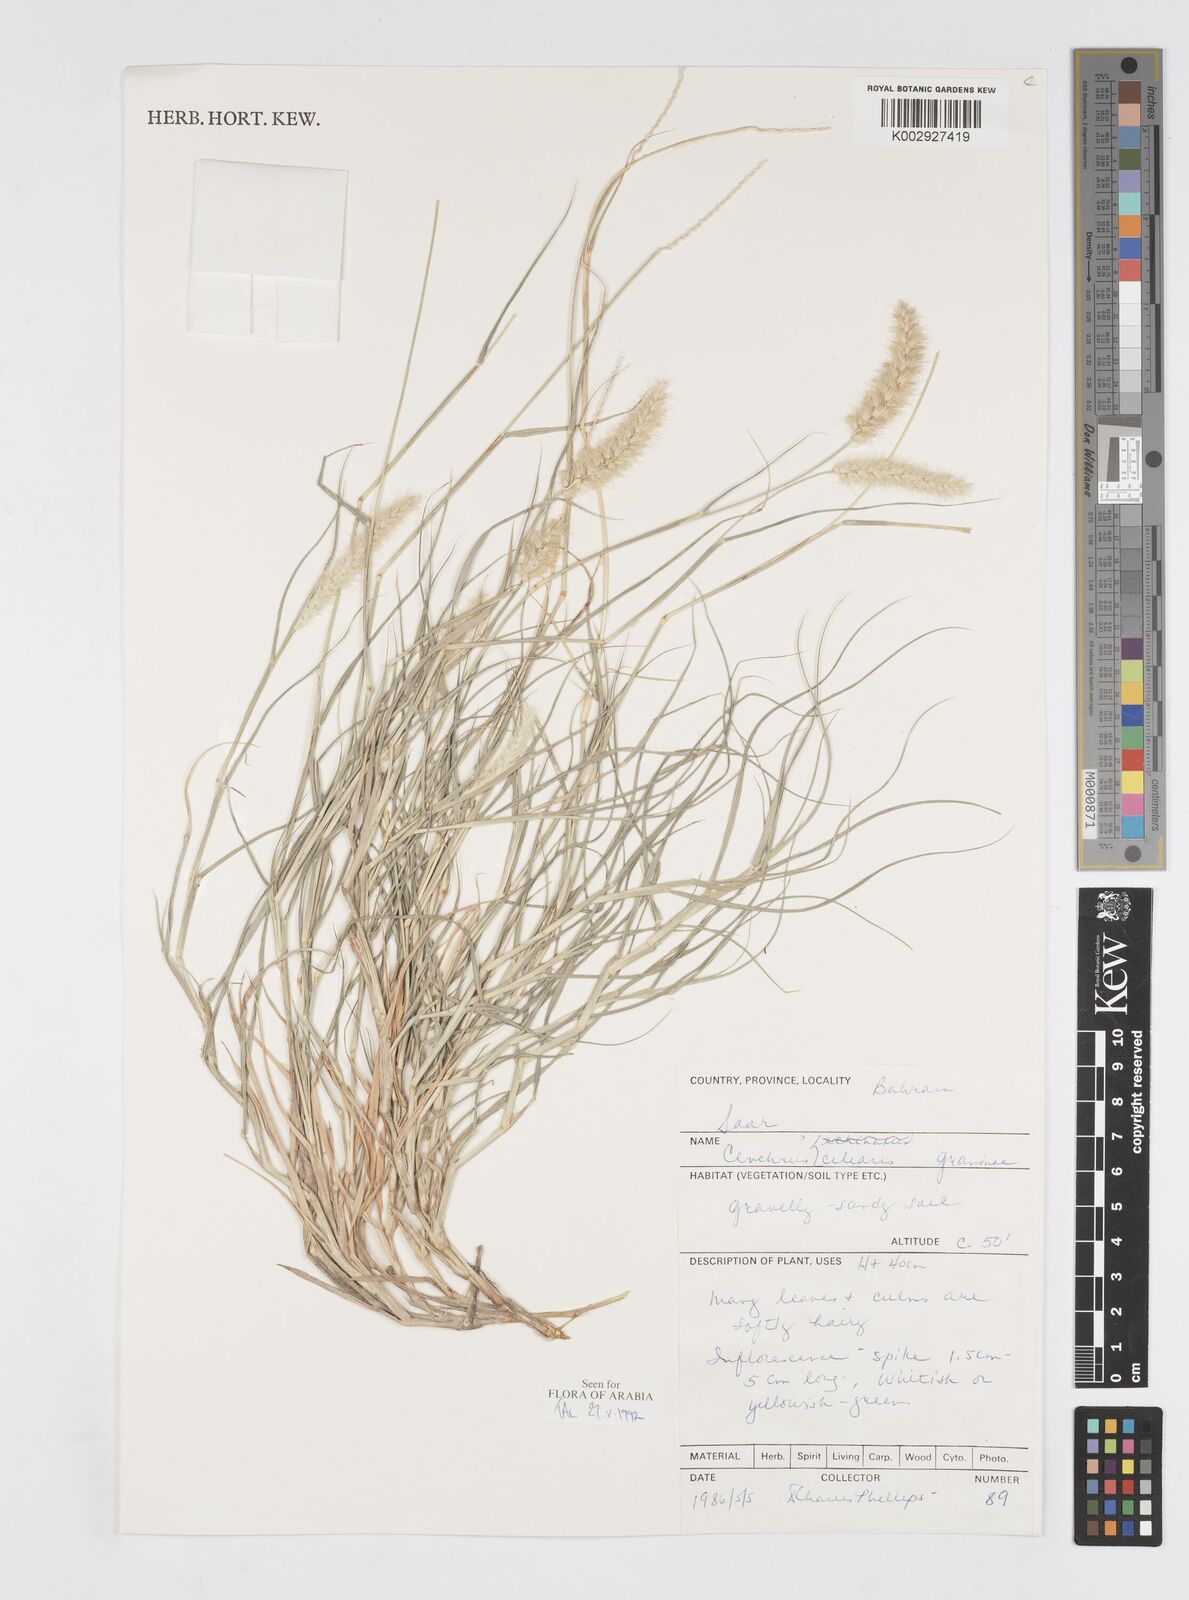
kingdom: Plantae
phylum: Tracheophyta
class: Liliopsida
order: Poales
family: Poaceae
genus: Cenchrus
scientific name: Cenchrus
